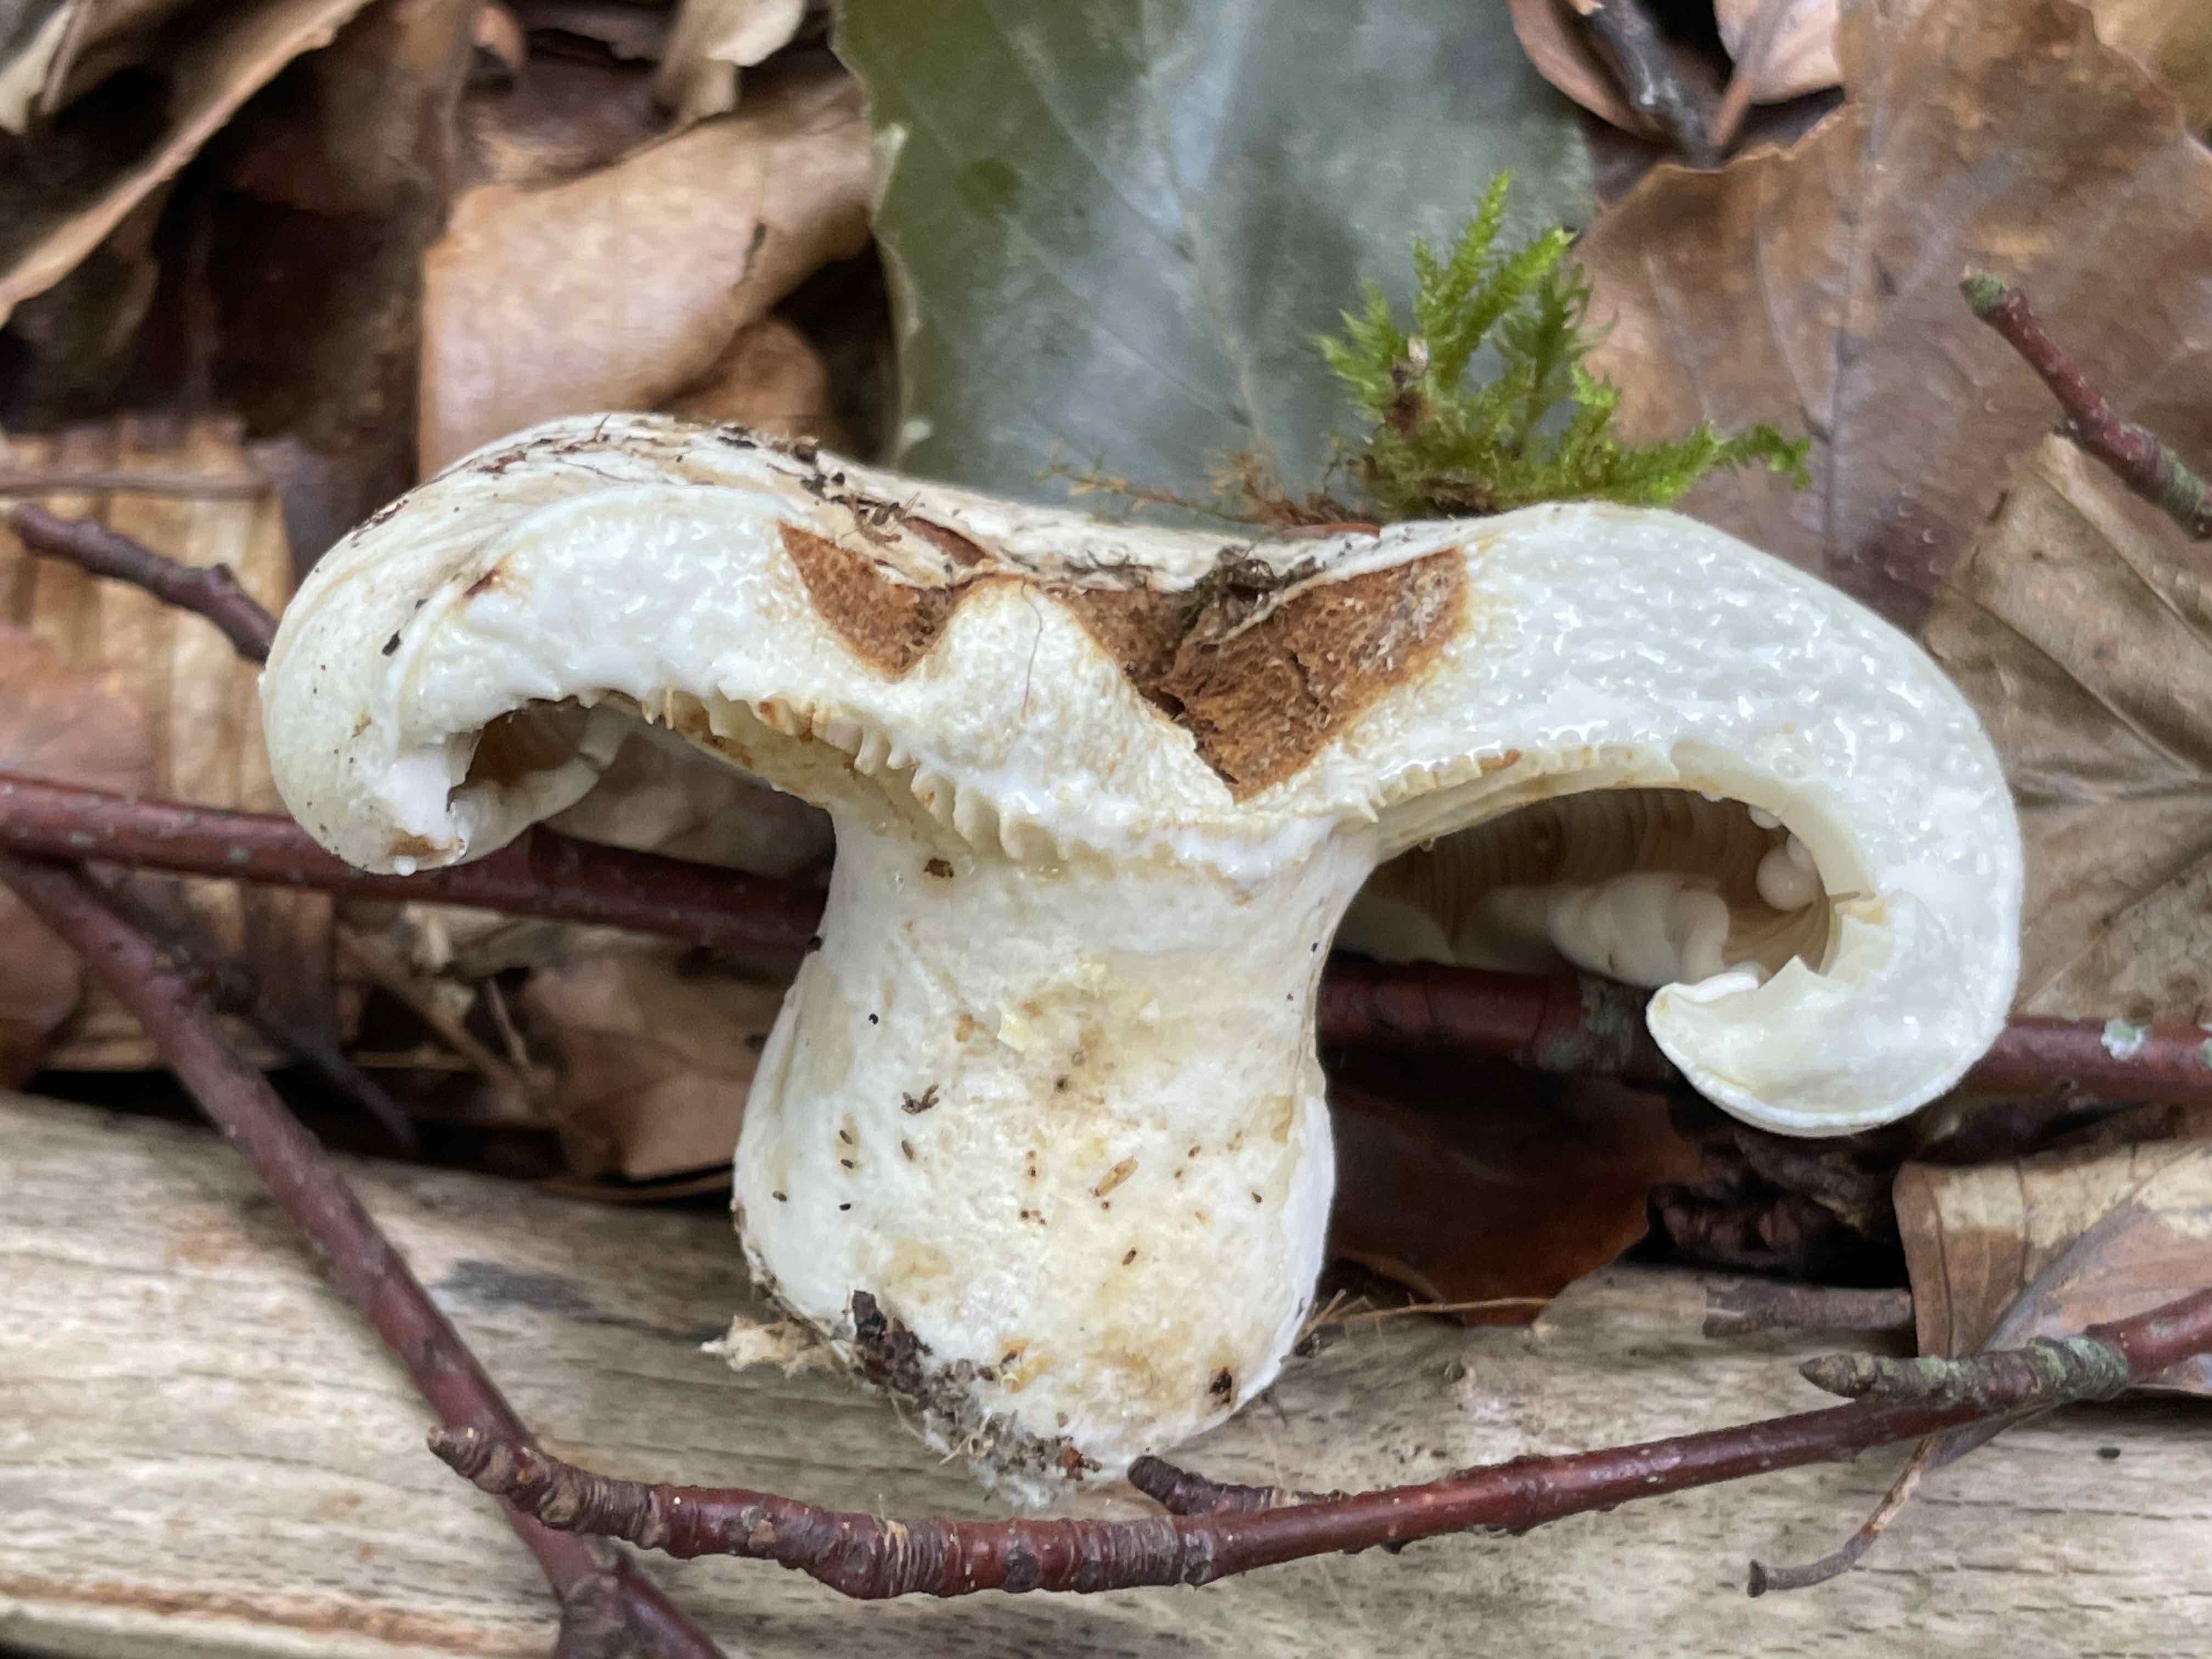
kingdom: Fungi
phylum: Basidiomycota
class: Agaricomycetes
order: Russulales
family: Russulaceae
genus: Lactifluus
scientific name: Lactifluus vellereus
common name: hvidfiltet mælkehat
